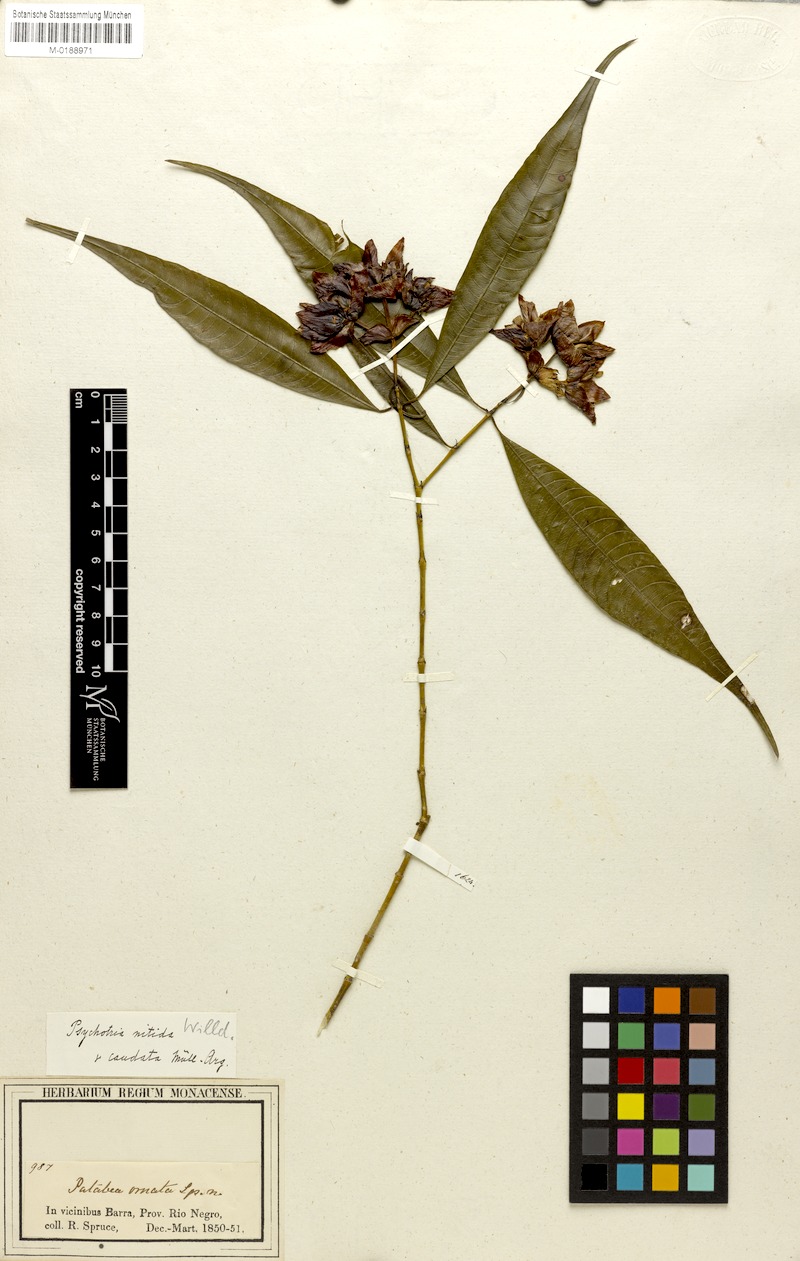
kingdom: Plantae
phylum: Tracheophyta
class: Magnoliopsida
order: Gentianales
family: Rubiaceae
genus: Palicourea
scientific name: Palicourea humboldtiana
